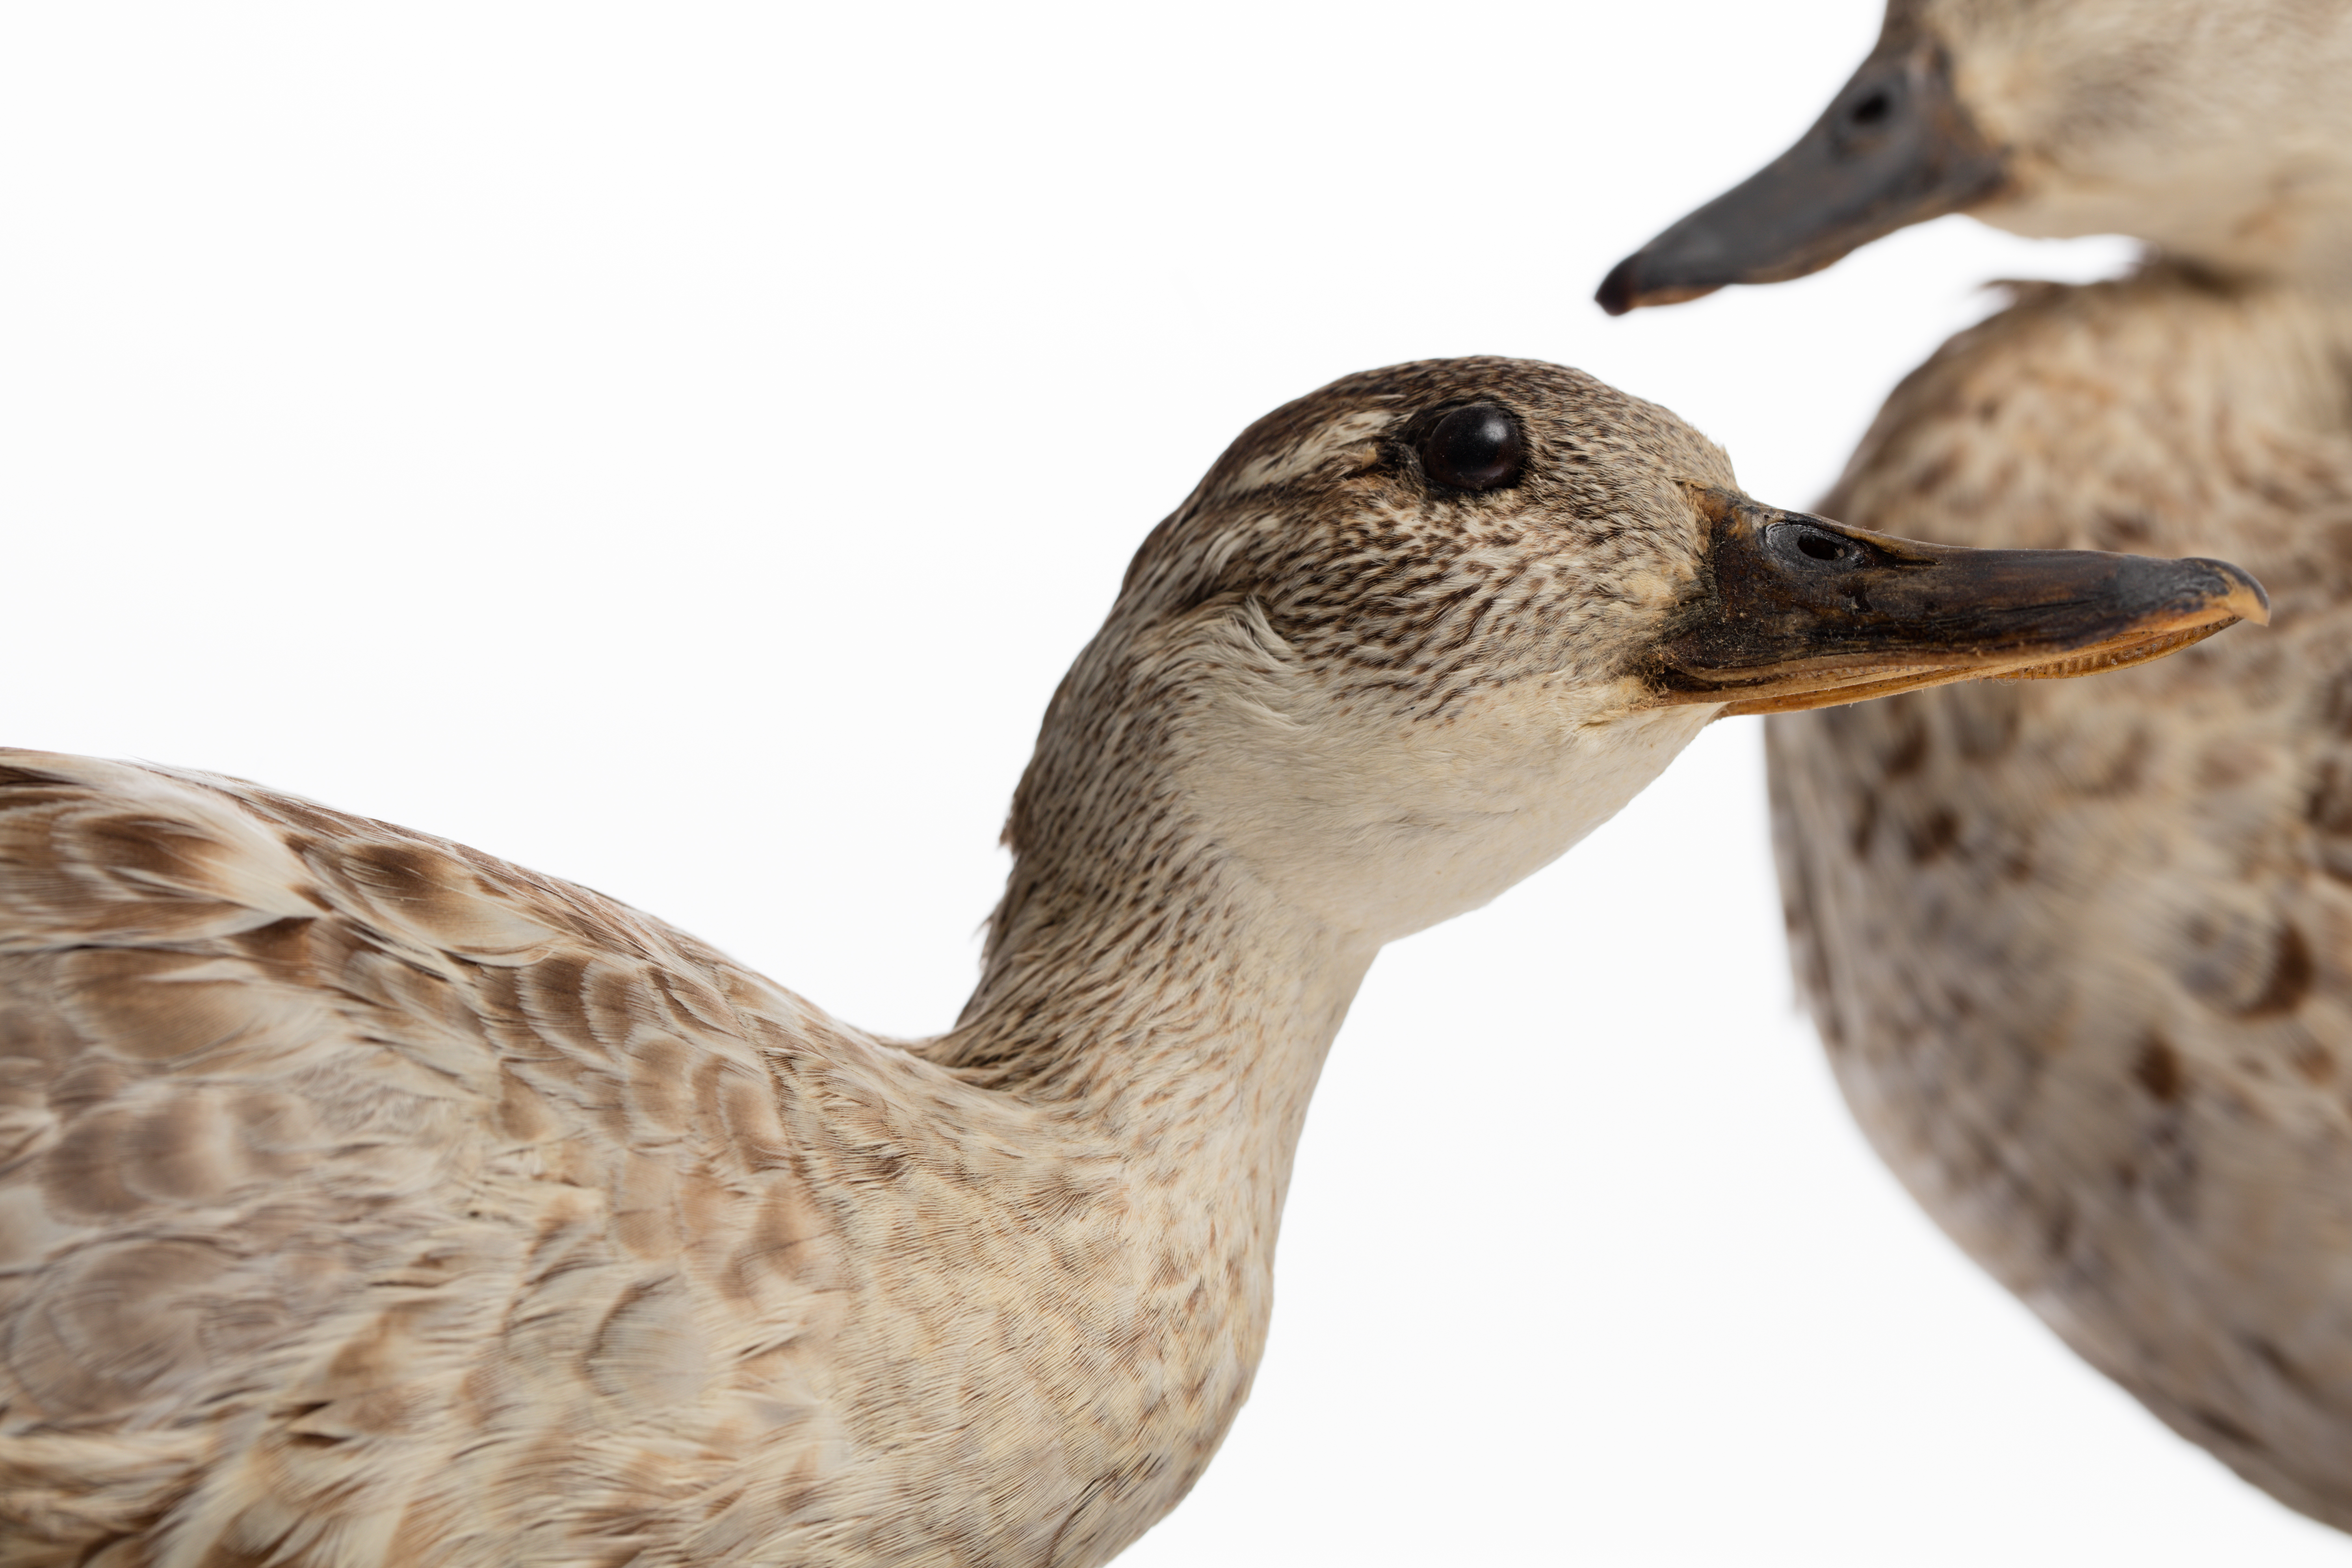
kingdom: Animalia
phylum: Chordata
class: Aves
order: Anseriformes
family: Anatidae
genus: Spatula
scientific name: Spatula querquedula
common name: Garganey
